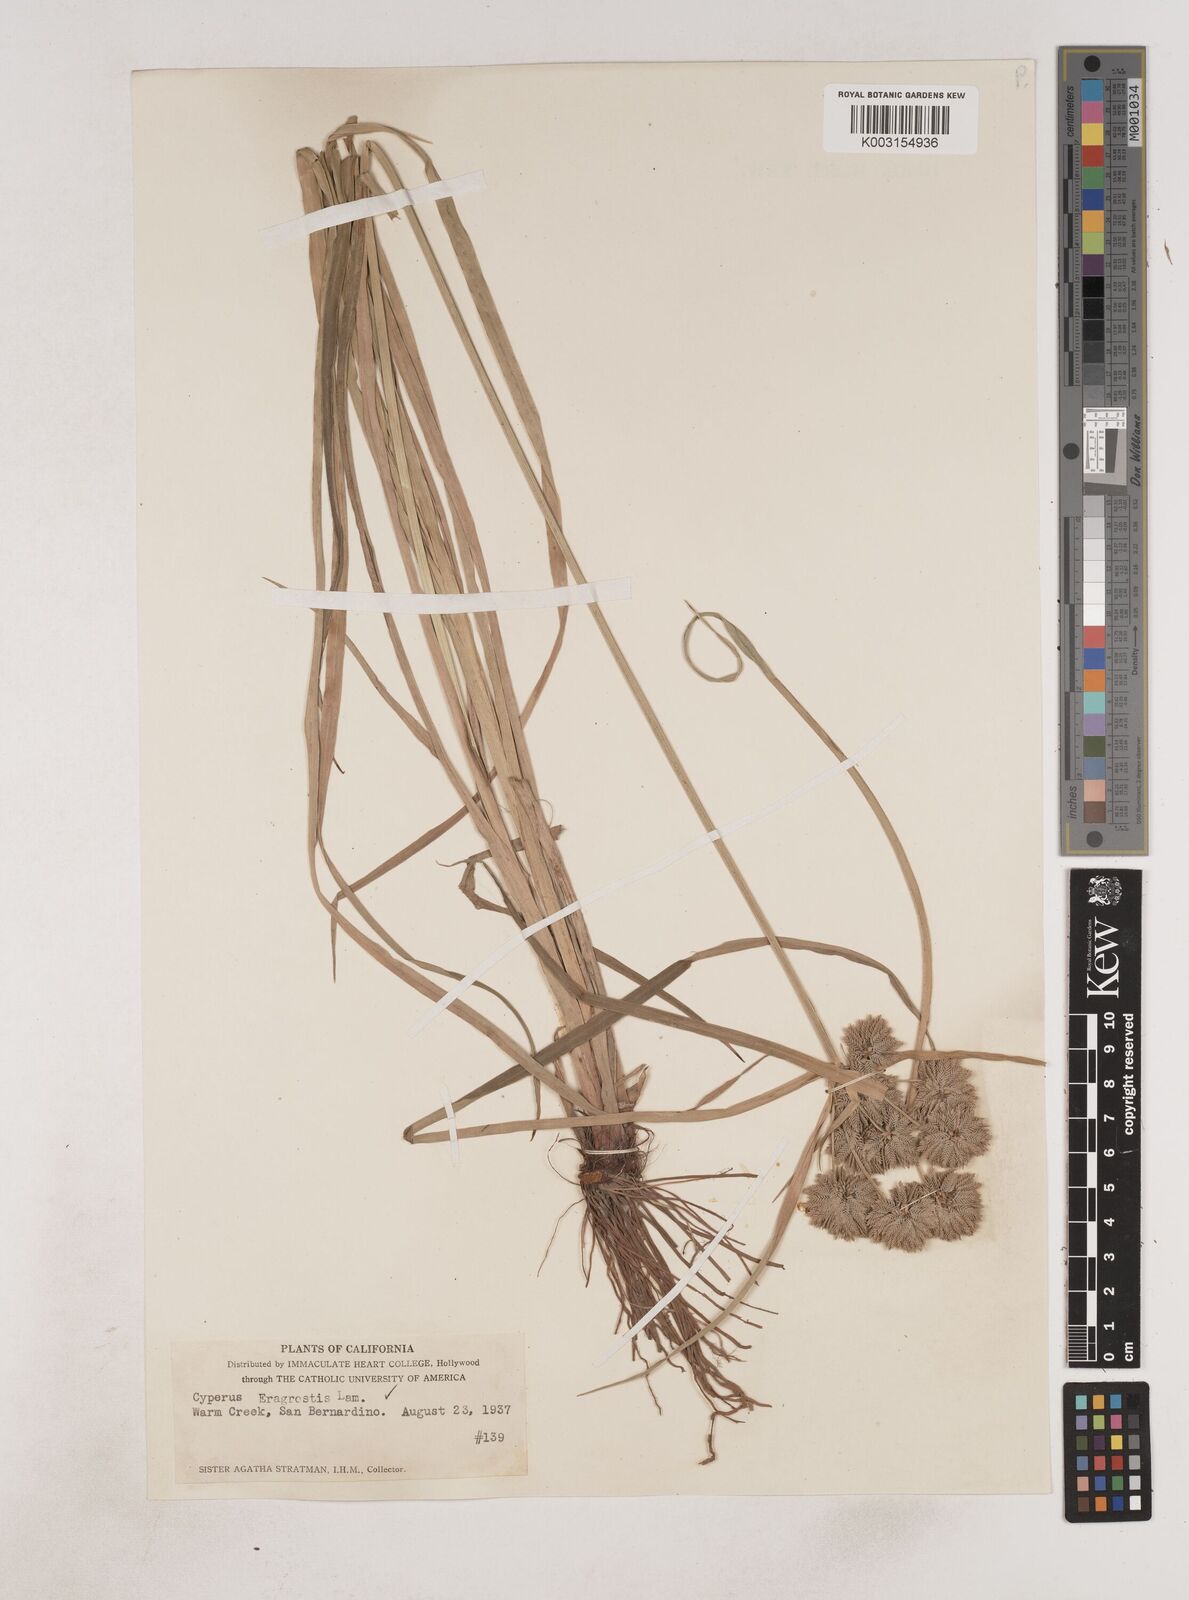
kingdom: Plantae
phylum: Tracheophyta
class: Liliopsida
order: Poales
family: Cyperaceae
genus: Cyperus
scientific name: Cyperus eragrostis
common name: Tall flatsedge
